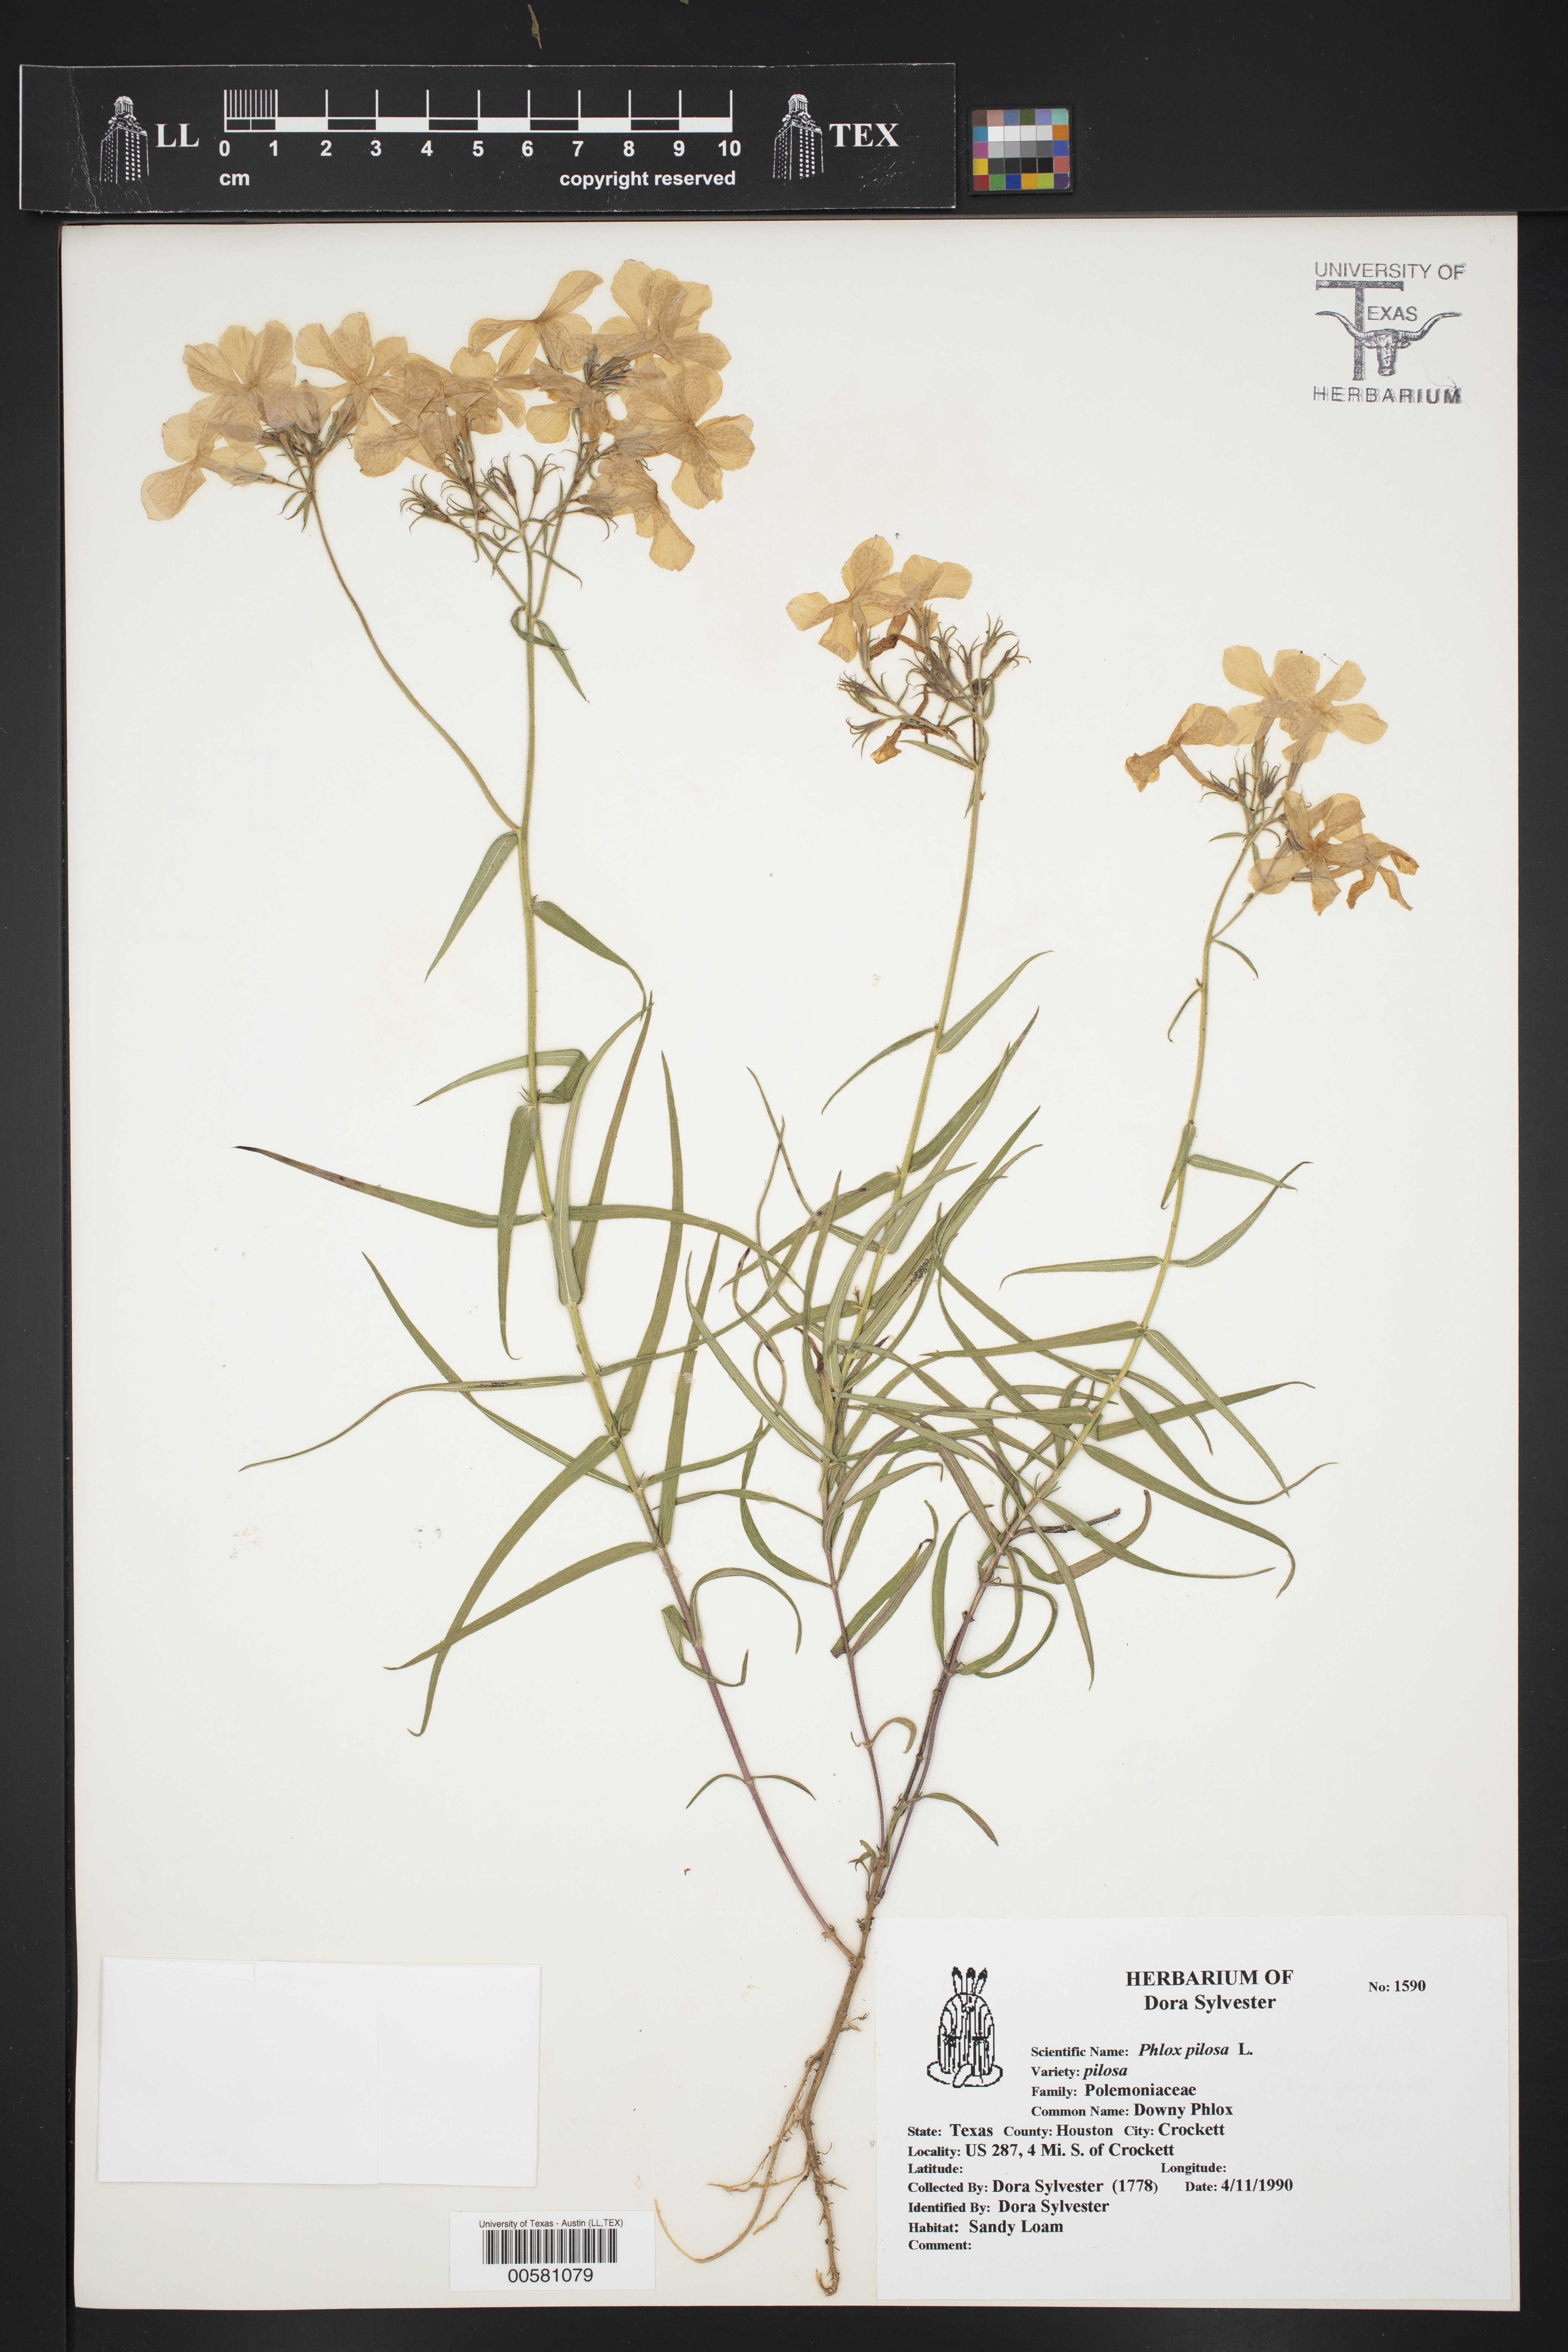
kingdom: Plantae
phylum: Tracheophyta
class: Magnoliopsida
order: Ericales
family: Polemoniaceae
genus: Phlox
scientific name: Phlox pilosa
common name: Prairie phlox
